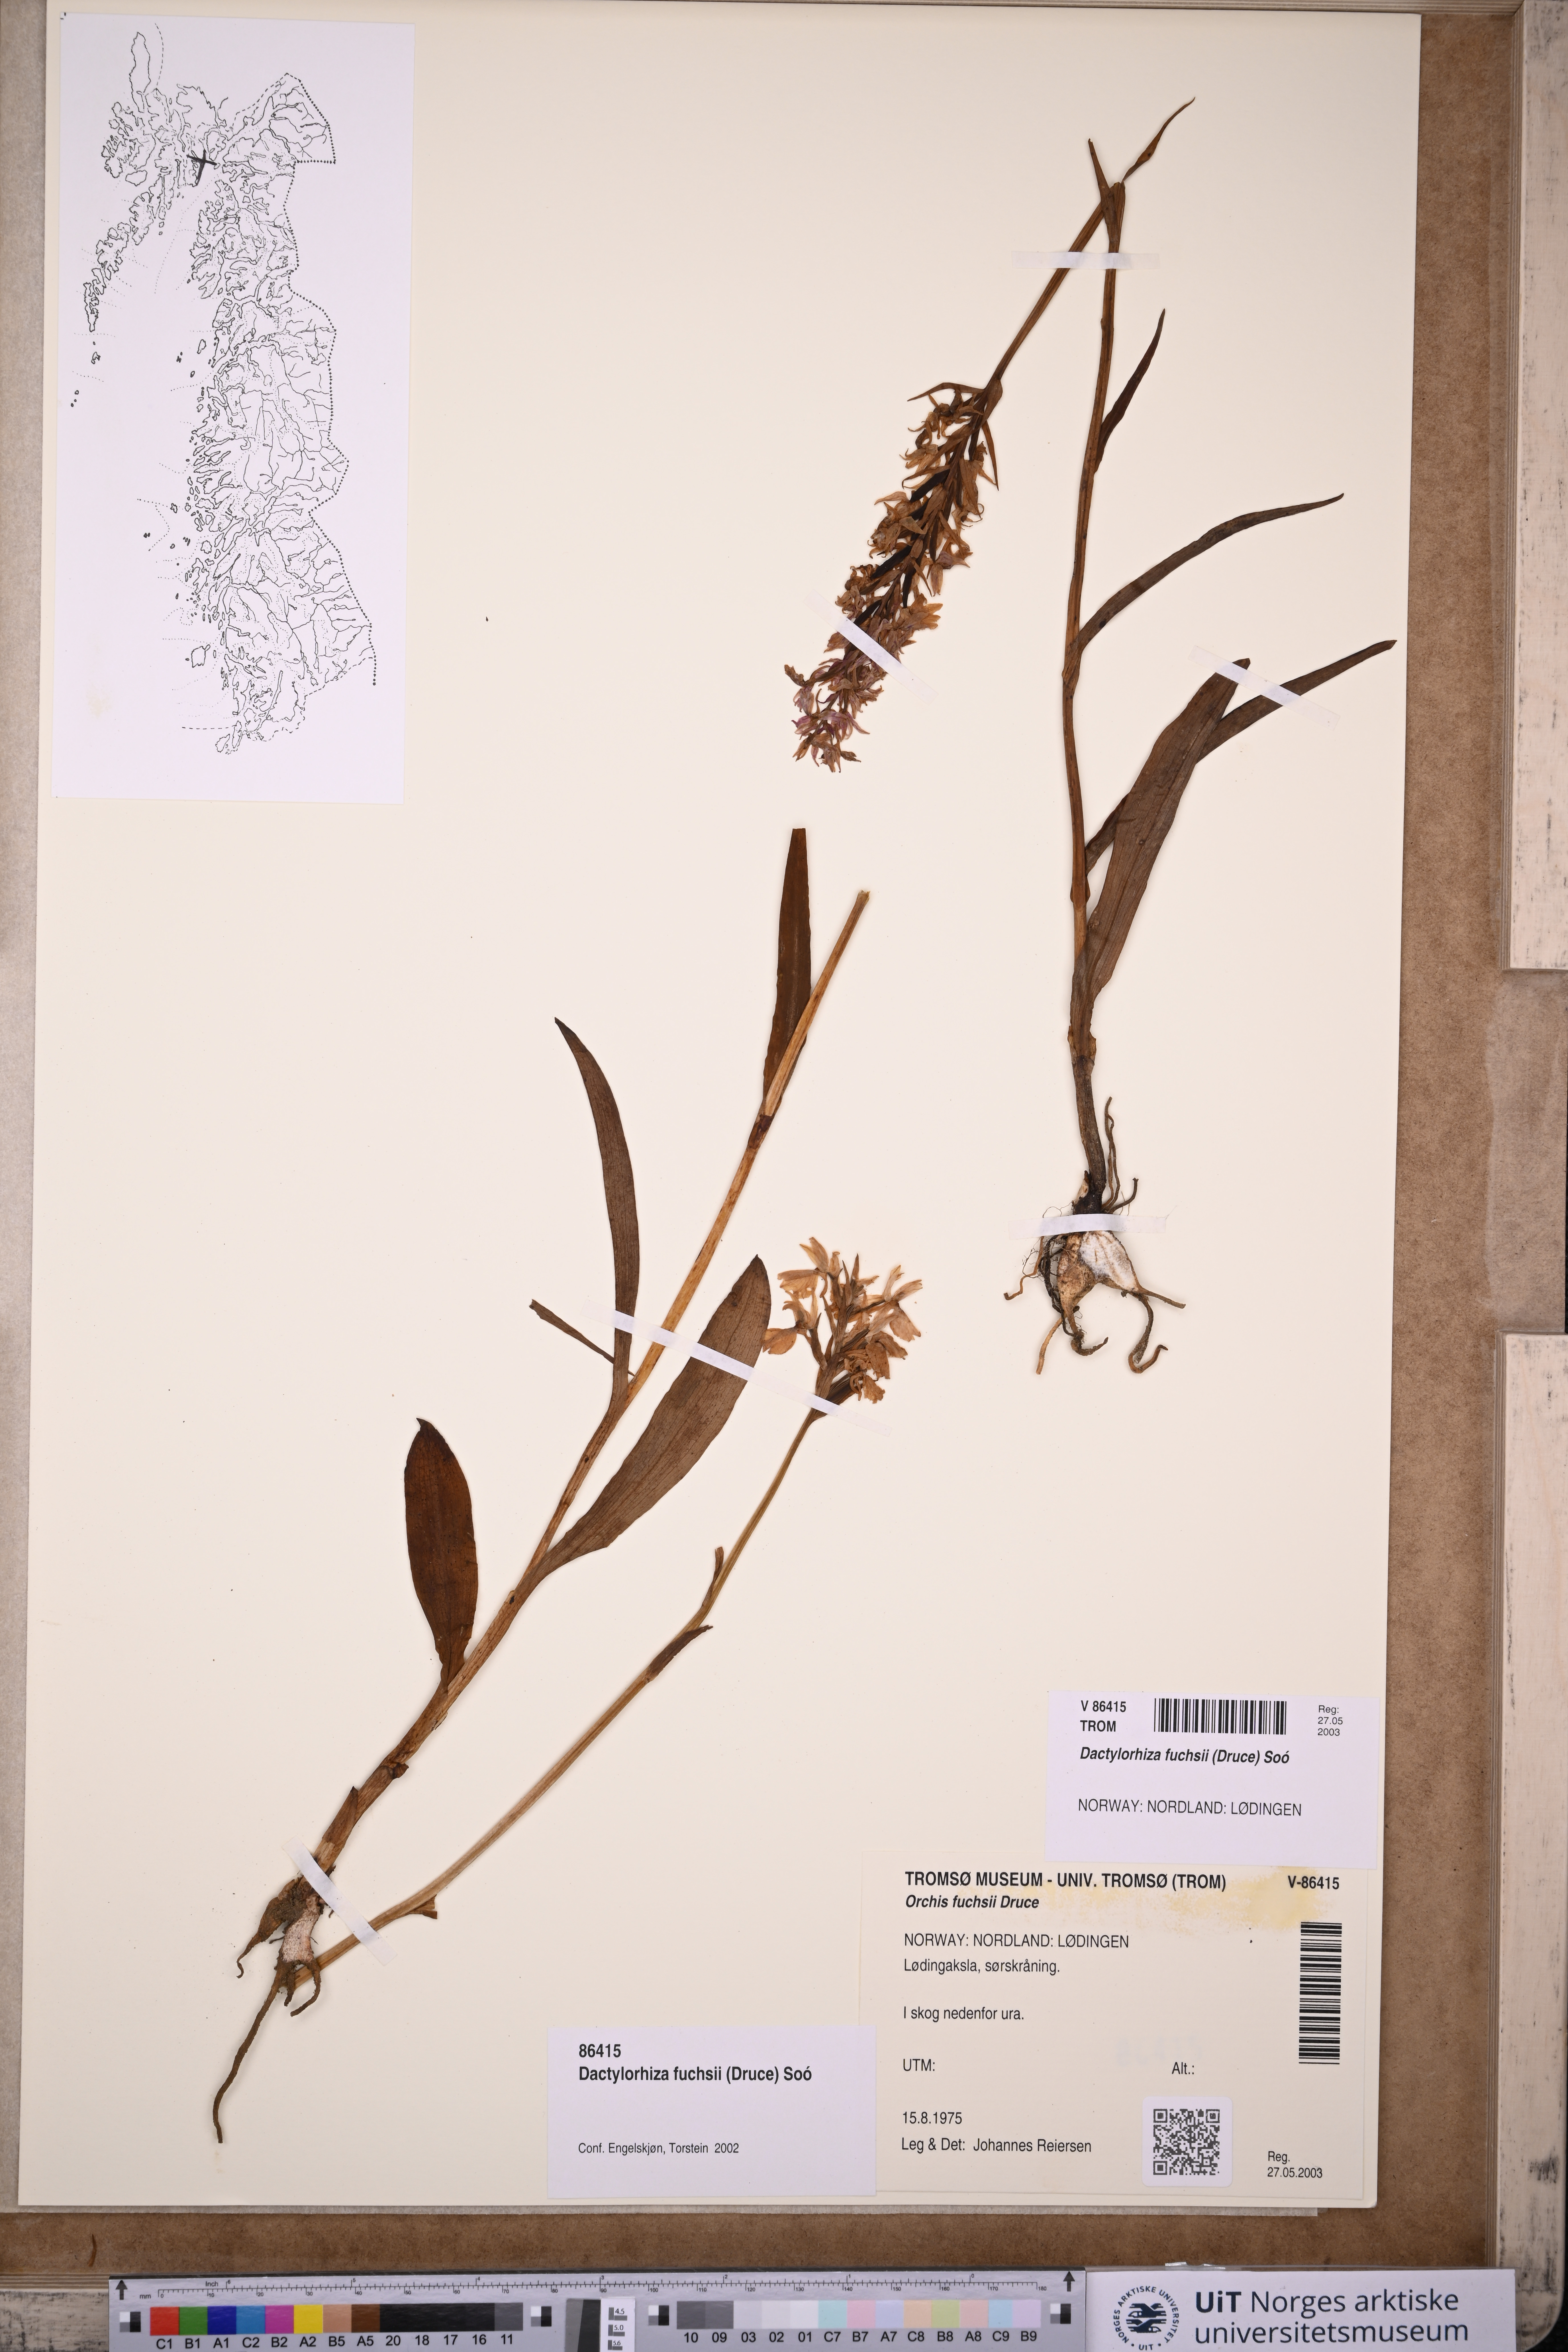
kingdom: Plantae
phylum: Tracheophyta
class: Liliopsida
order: Asparagales
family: Orchidaceae
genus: Dactylorhiza
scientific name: Dactylorhiza maculata
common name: Heath spotted-orchid
